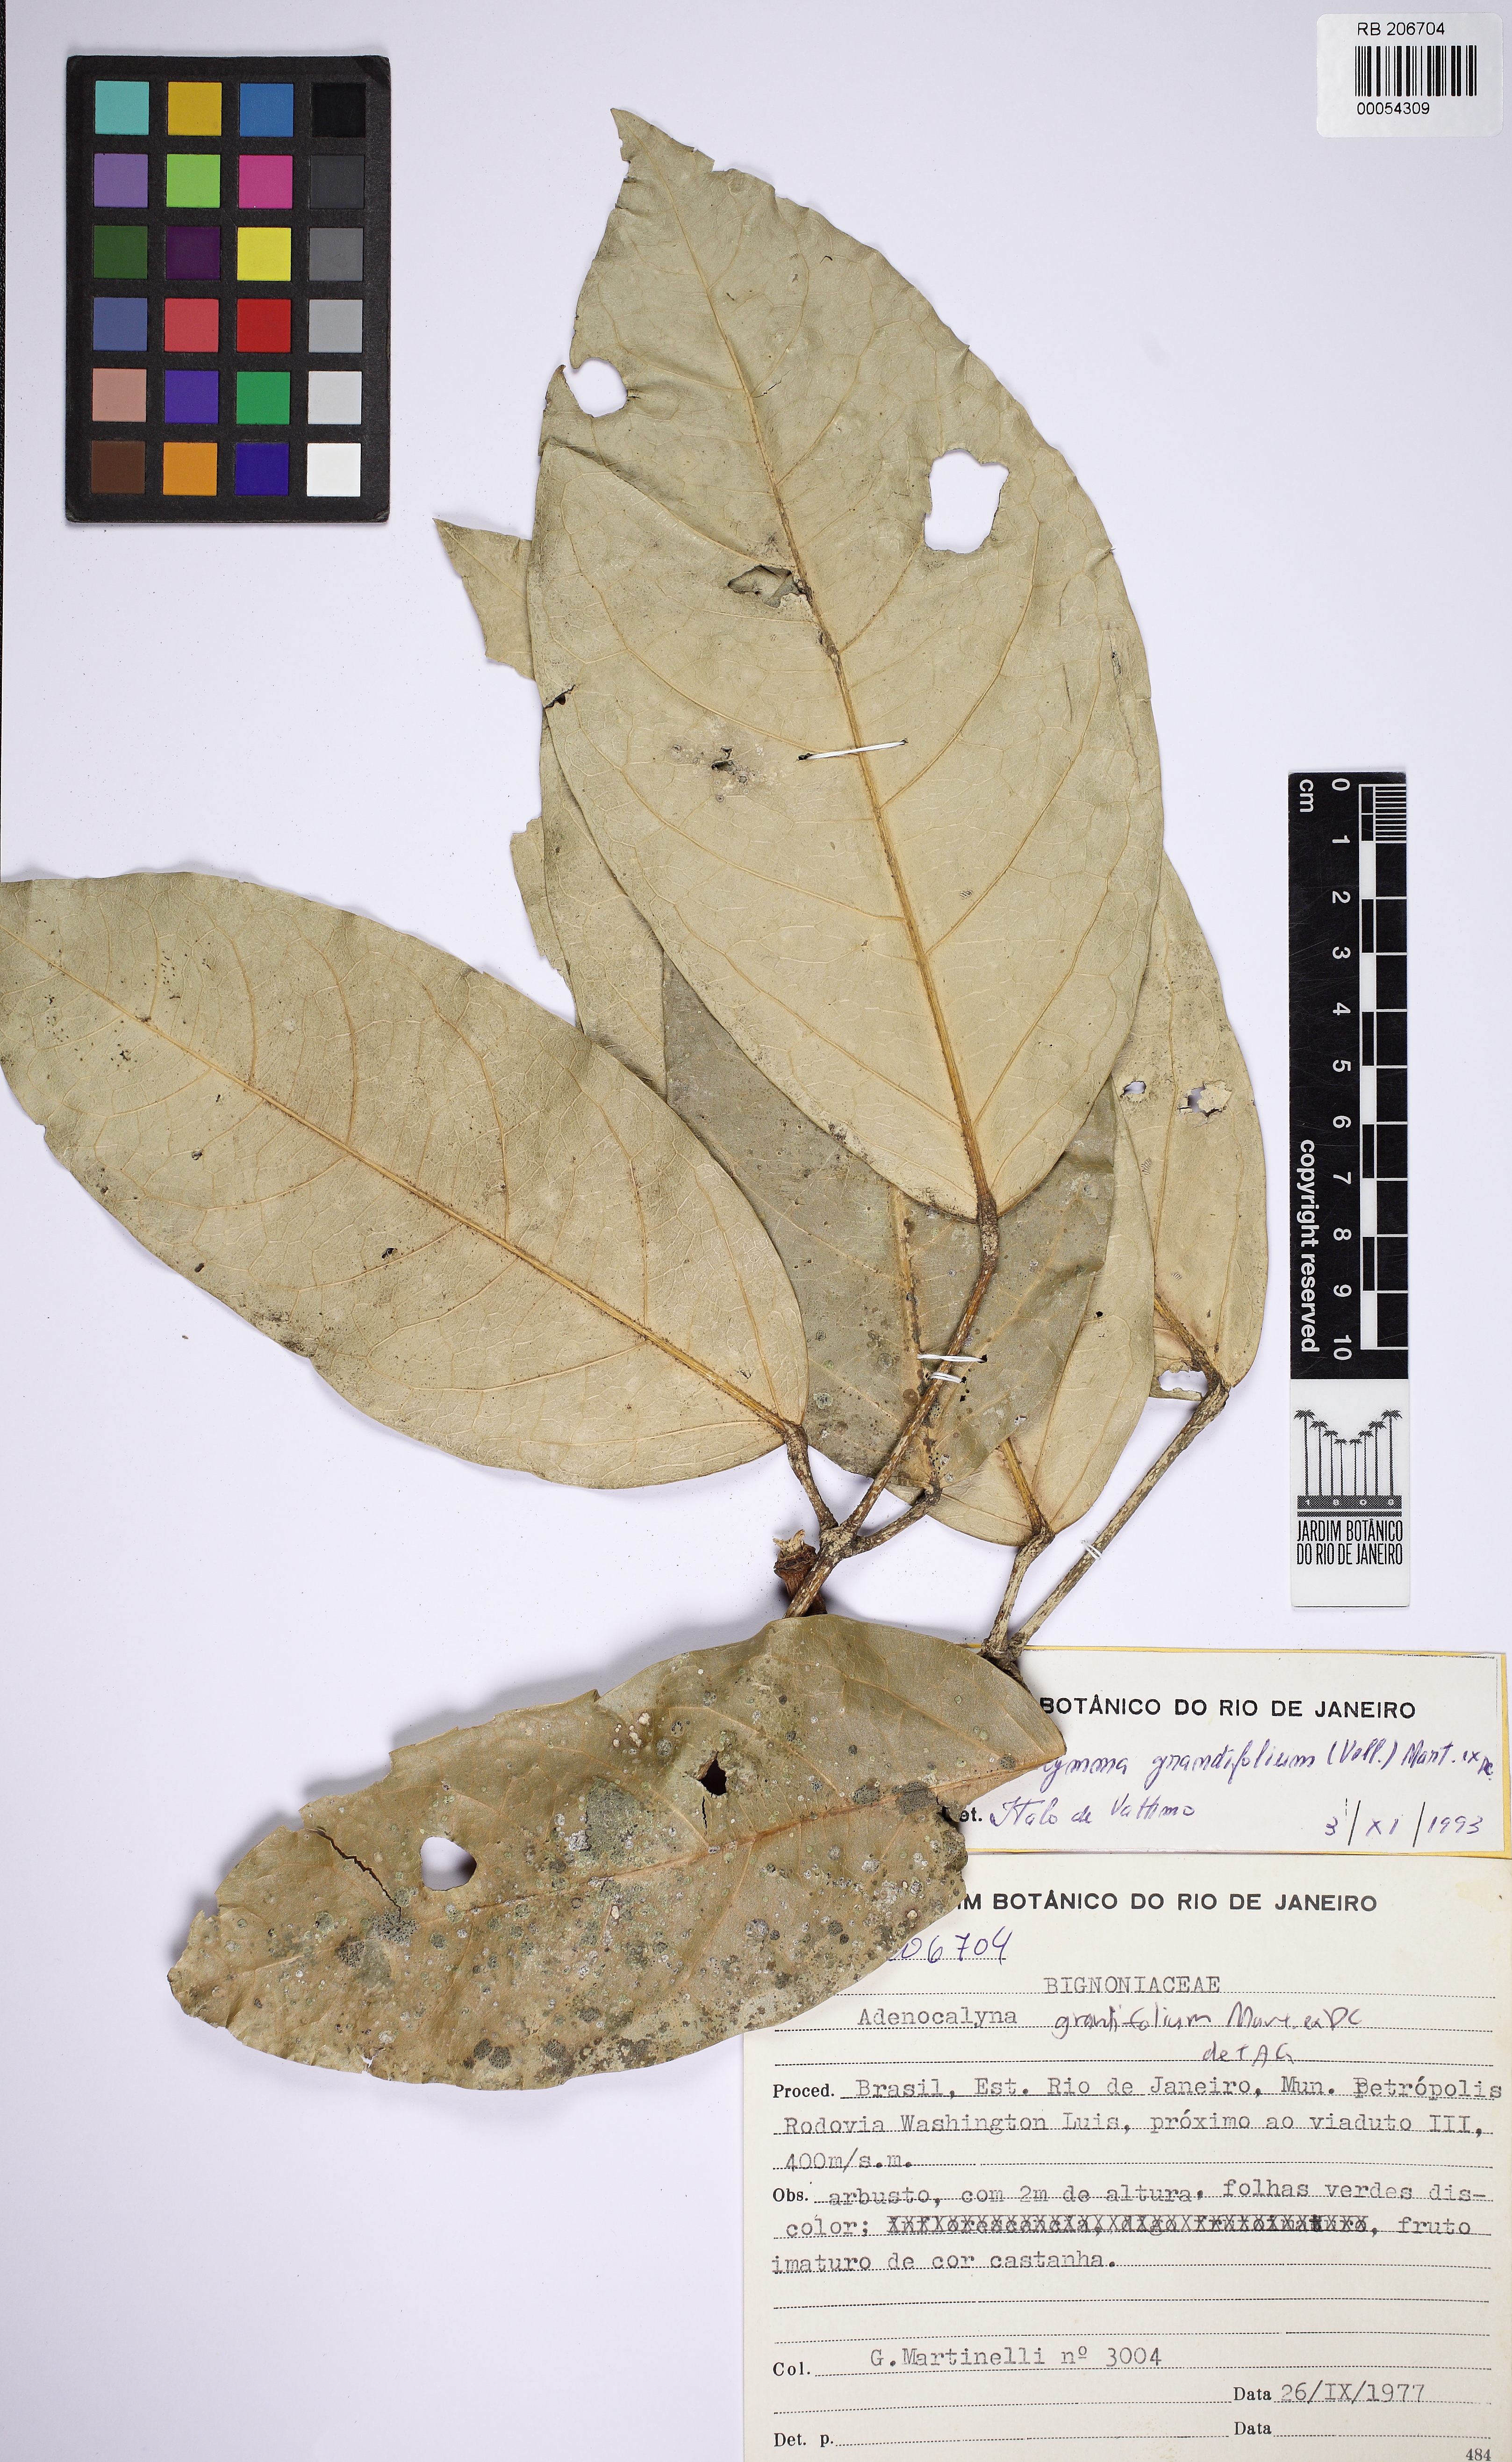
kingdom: Plantae
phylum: Tracheophyta
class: Magnoliopsida
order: Lamiales
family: Bignoniaceae
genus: Adenocalymma
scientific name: Adenocalymma ternatum
